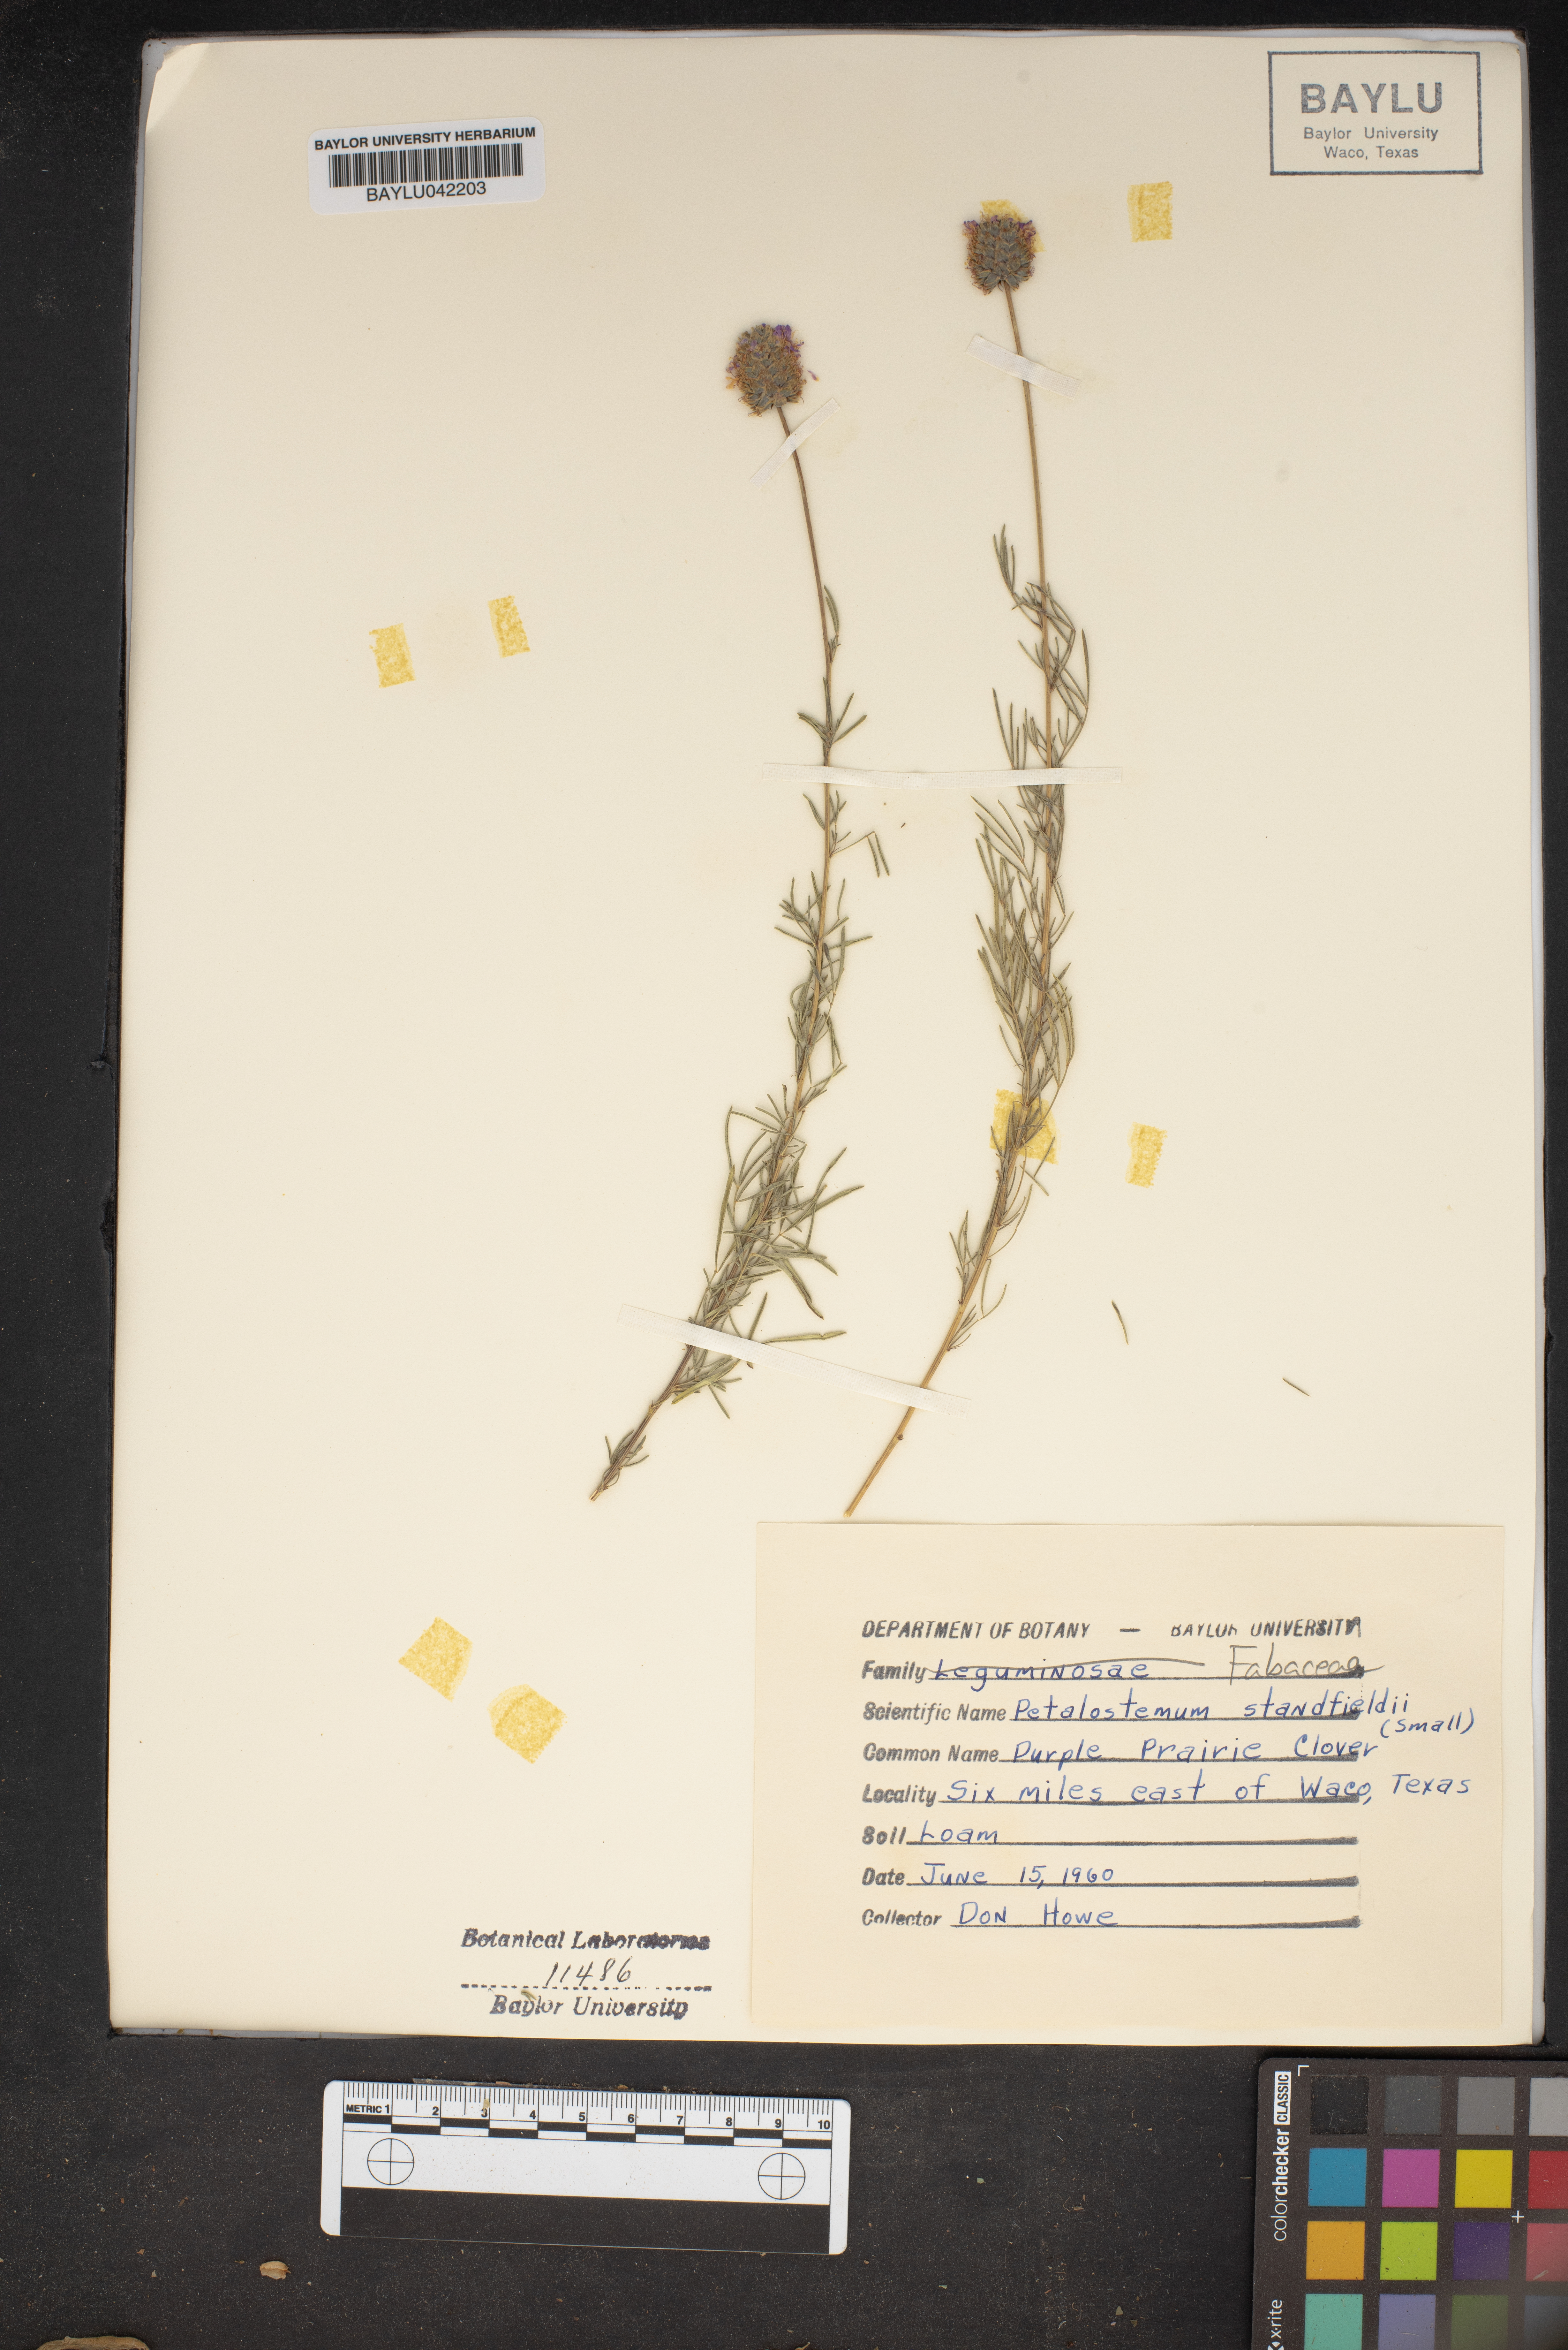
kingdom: Plantae
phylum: Tracheophyta
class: Magnoliopsida
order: Fabales
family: Fabaceae
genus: Dalea
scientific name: Dalea tenuis
